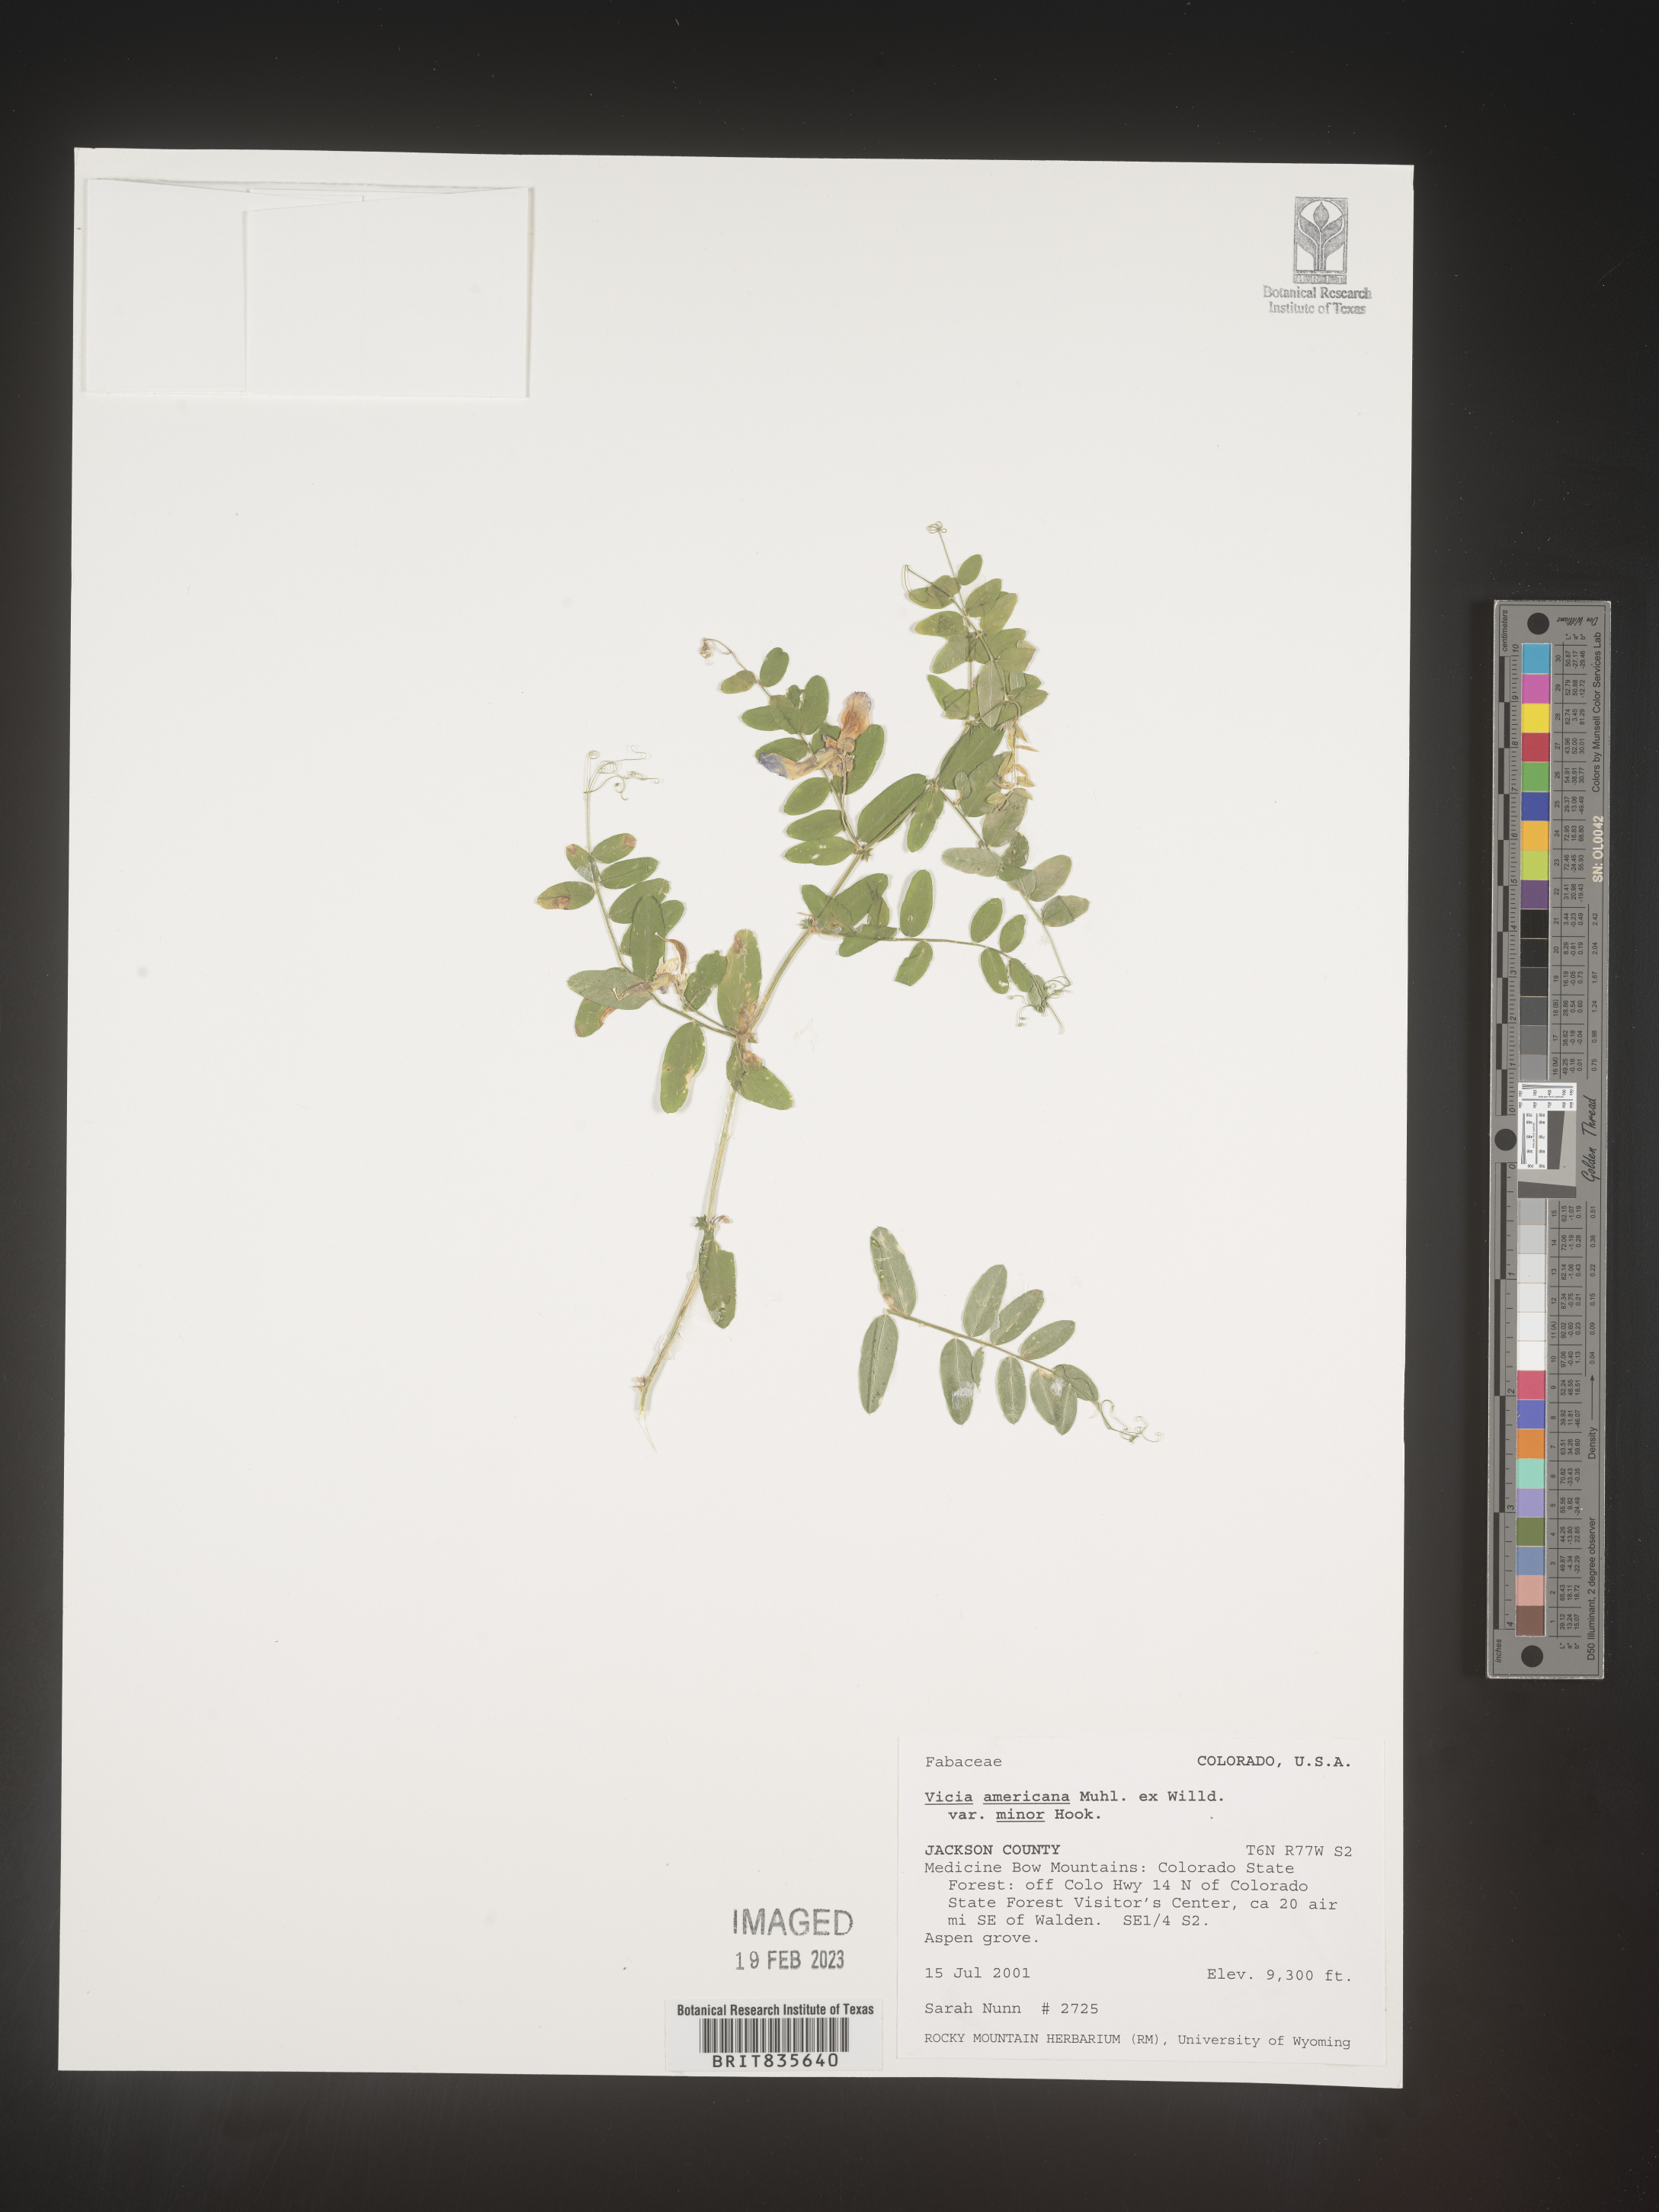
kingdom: Plantae
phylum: Tracheophyta
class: Magnoliopsida
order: Fabales
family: Fabaceae
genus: Vicia
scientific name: Vicia americana
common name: American vetch
